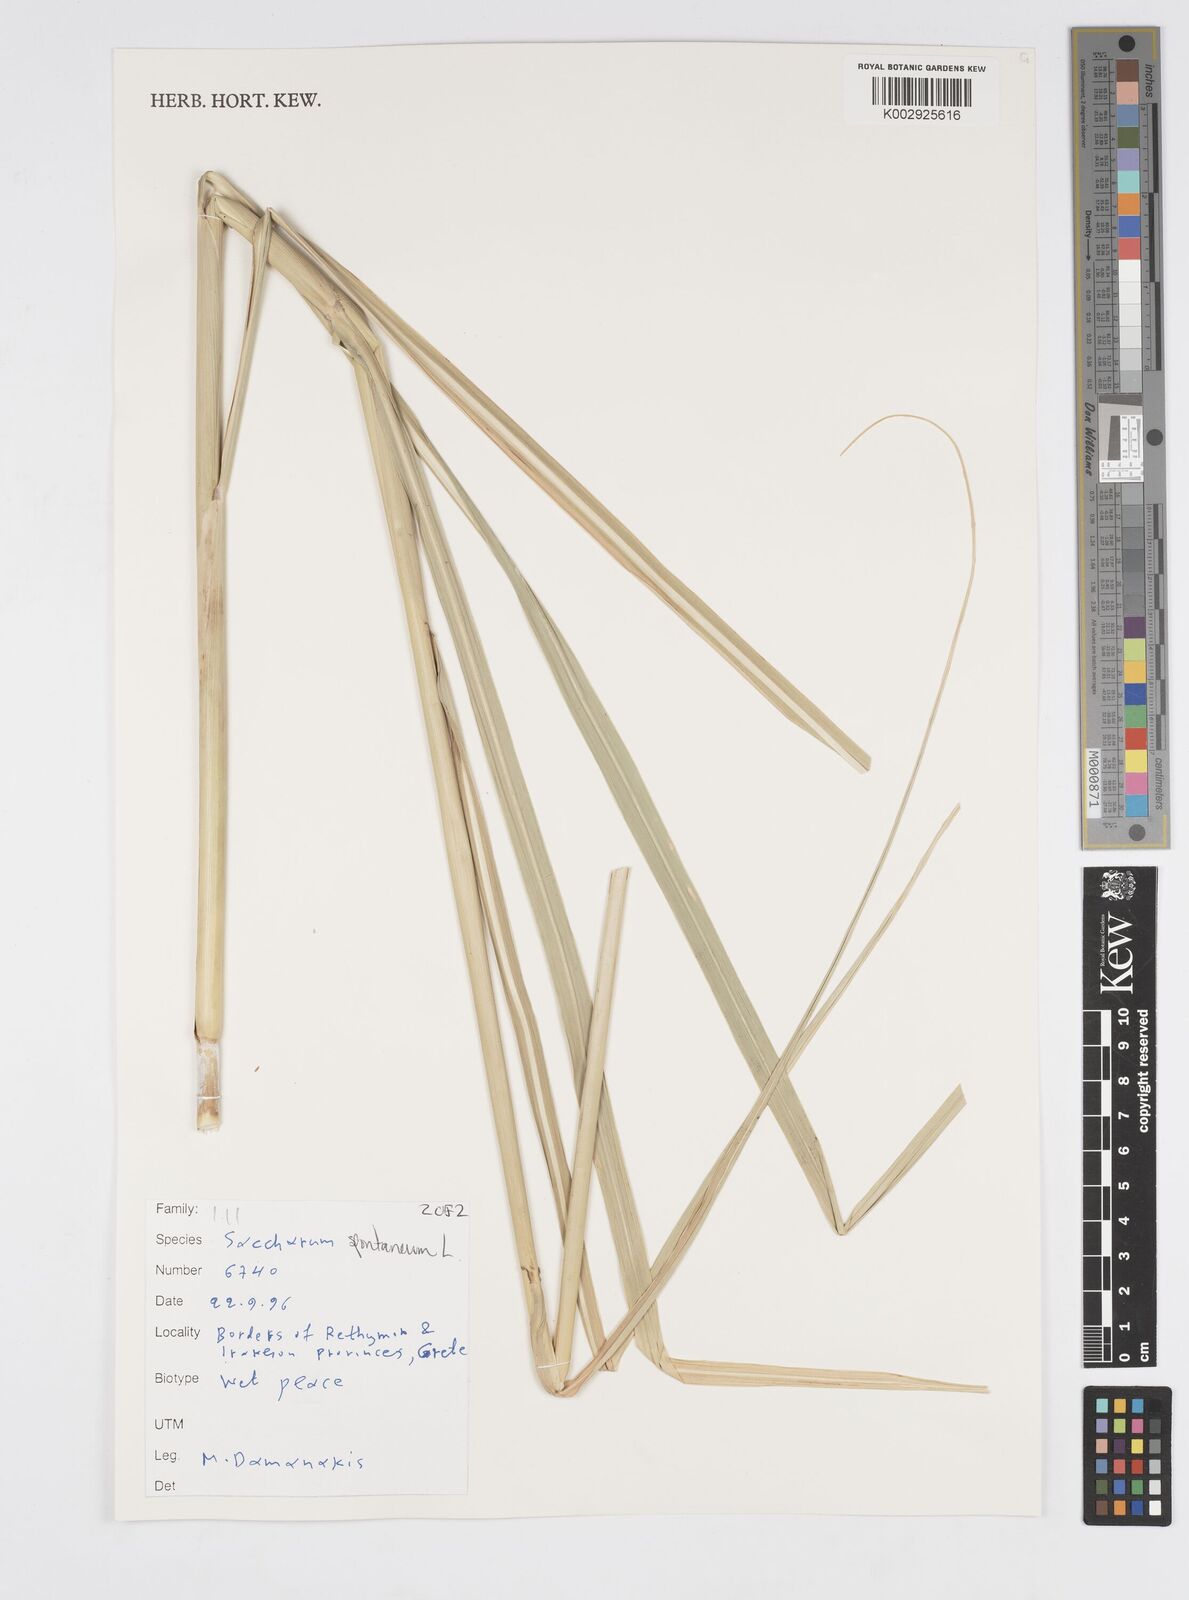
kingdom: Plantae
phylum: Tracheophyta
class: Liliopsida
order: Poales
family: Poaceae
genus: Saccharum
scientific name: Saccharum spontaneum
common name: Wild sugarcane
